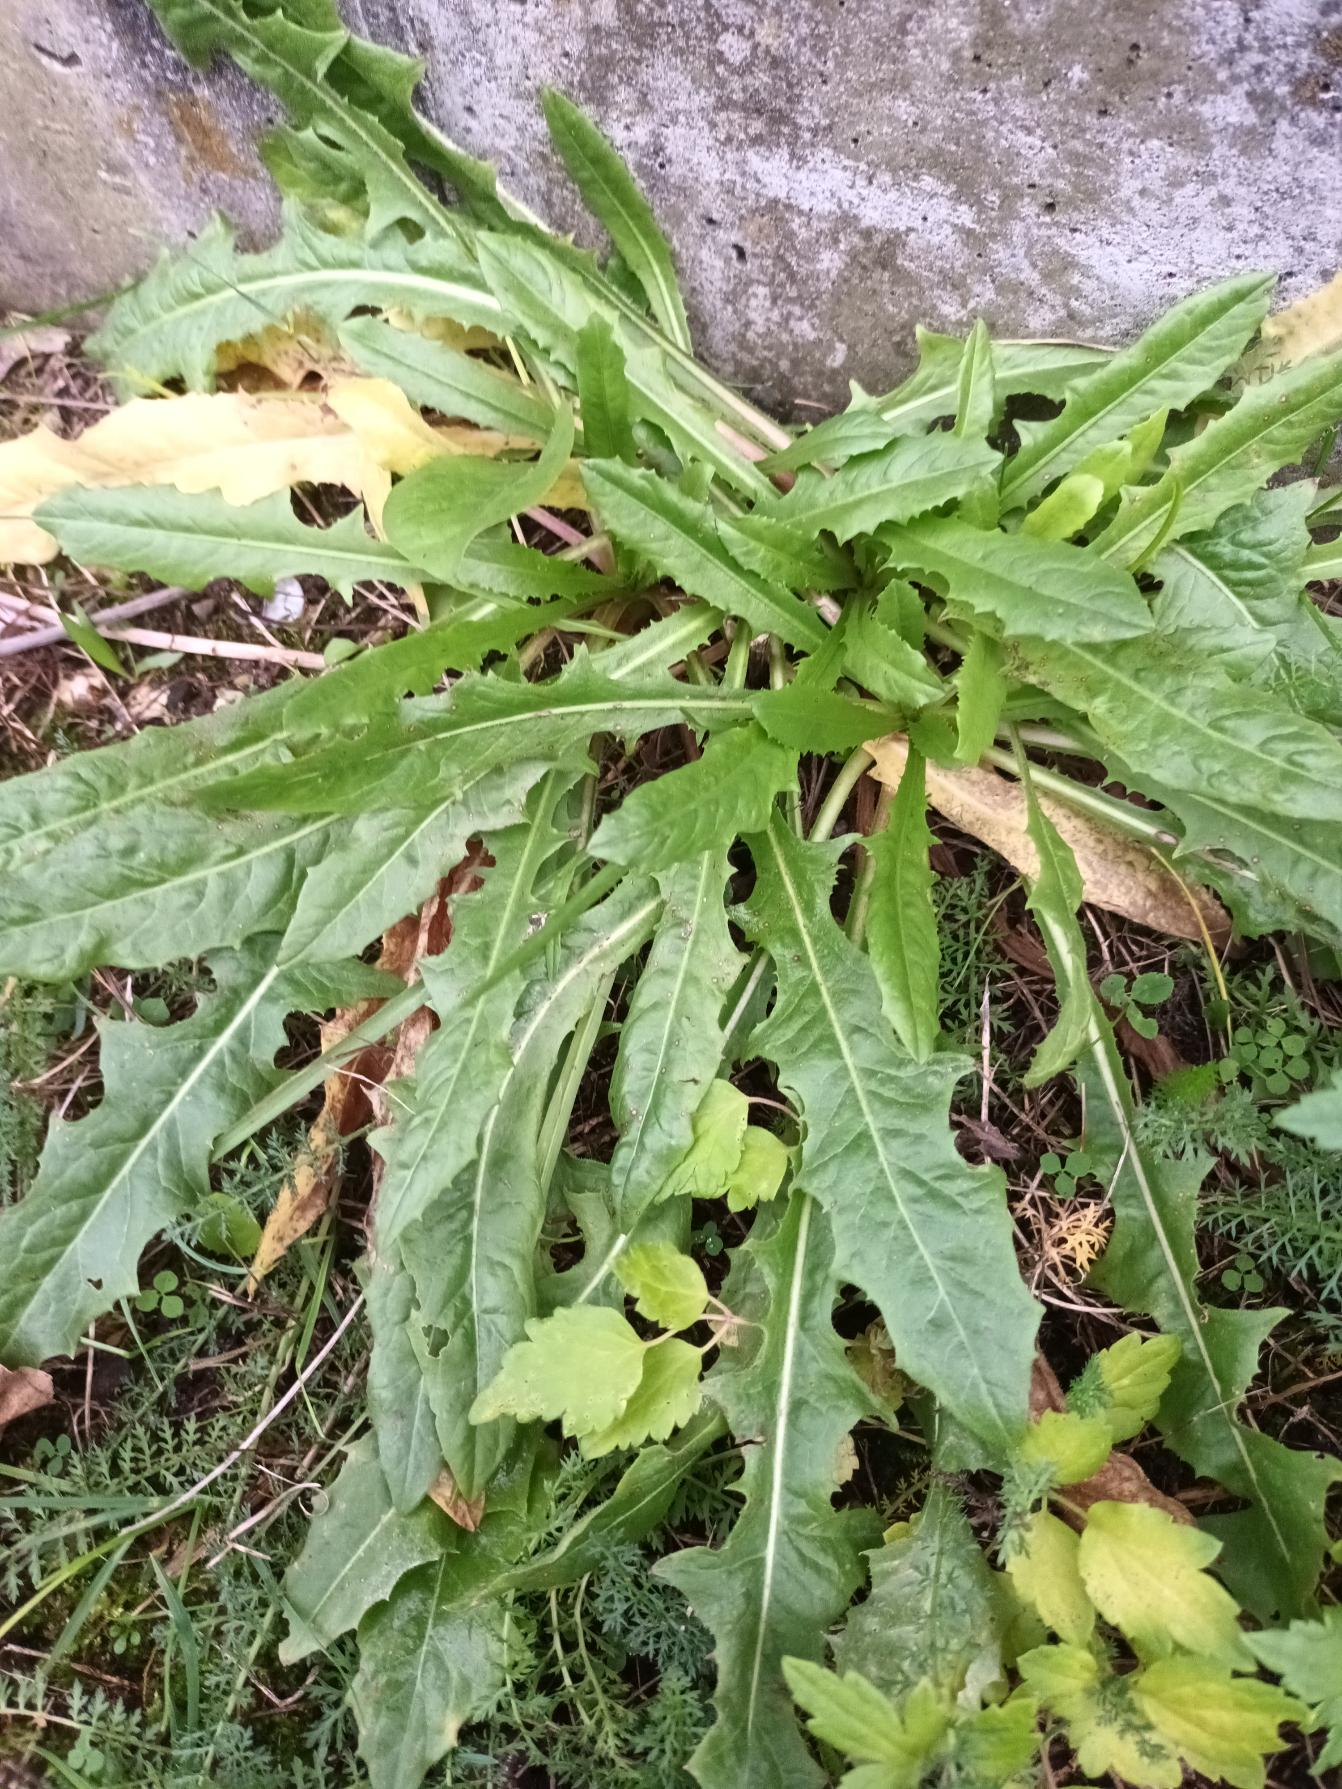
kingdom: Plantae
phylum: Tracheophyta
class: Magnoliopsida
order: Asterales
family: Asteraceae
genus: Taraxacum
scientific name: Taraxacum
